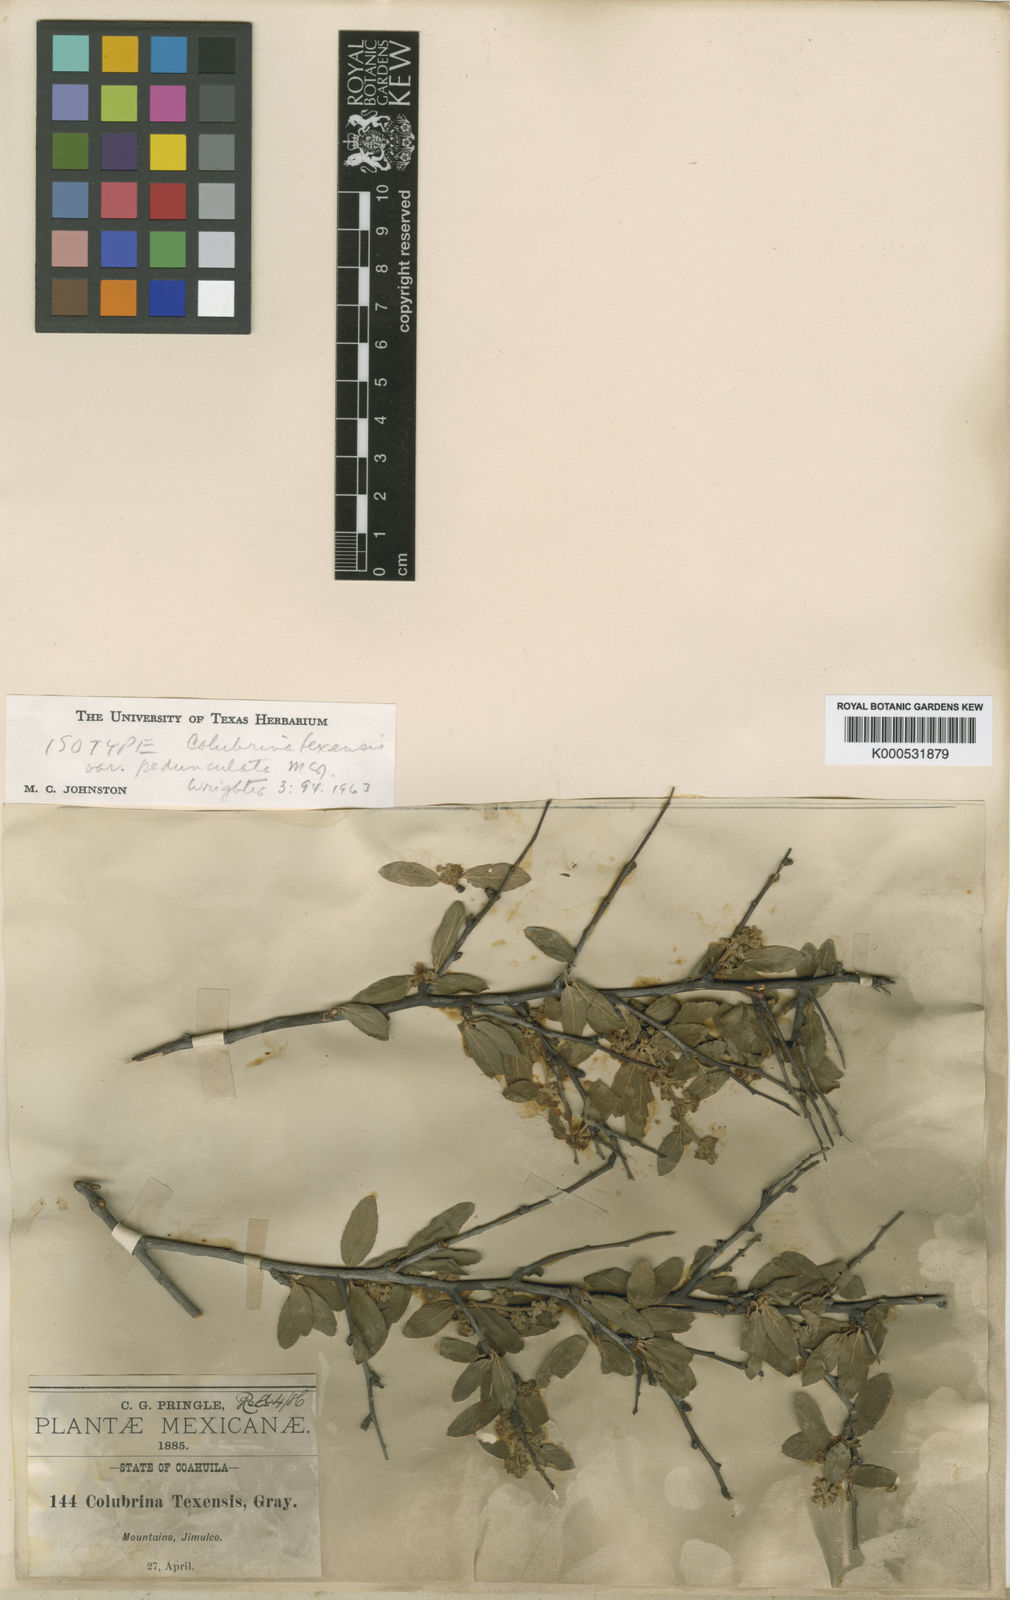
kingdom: Plantae
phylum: Tracheophyta
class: Magnoliopsida
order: Rosales
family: Rhamnaceae
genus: Colubrina
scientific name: Colubrina stricta
